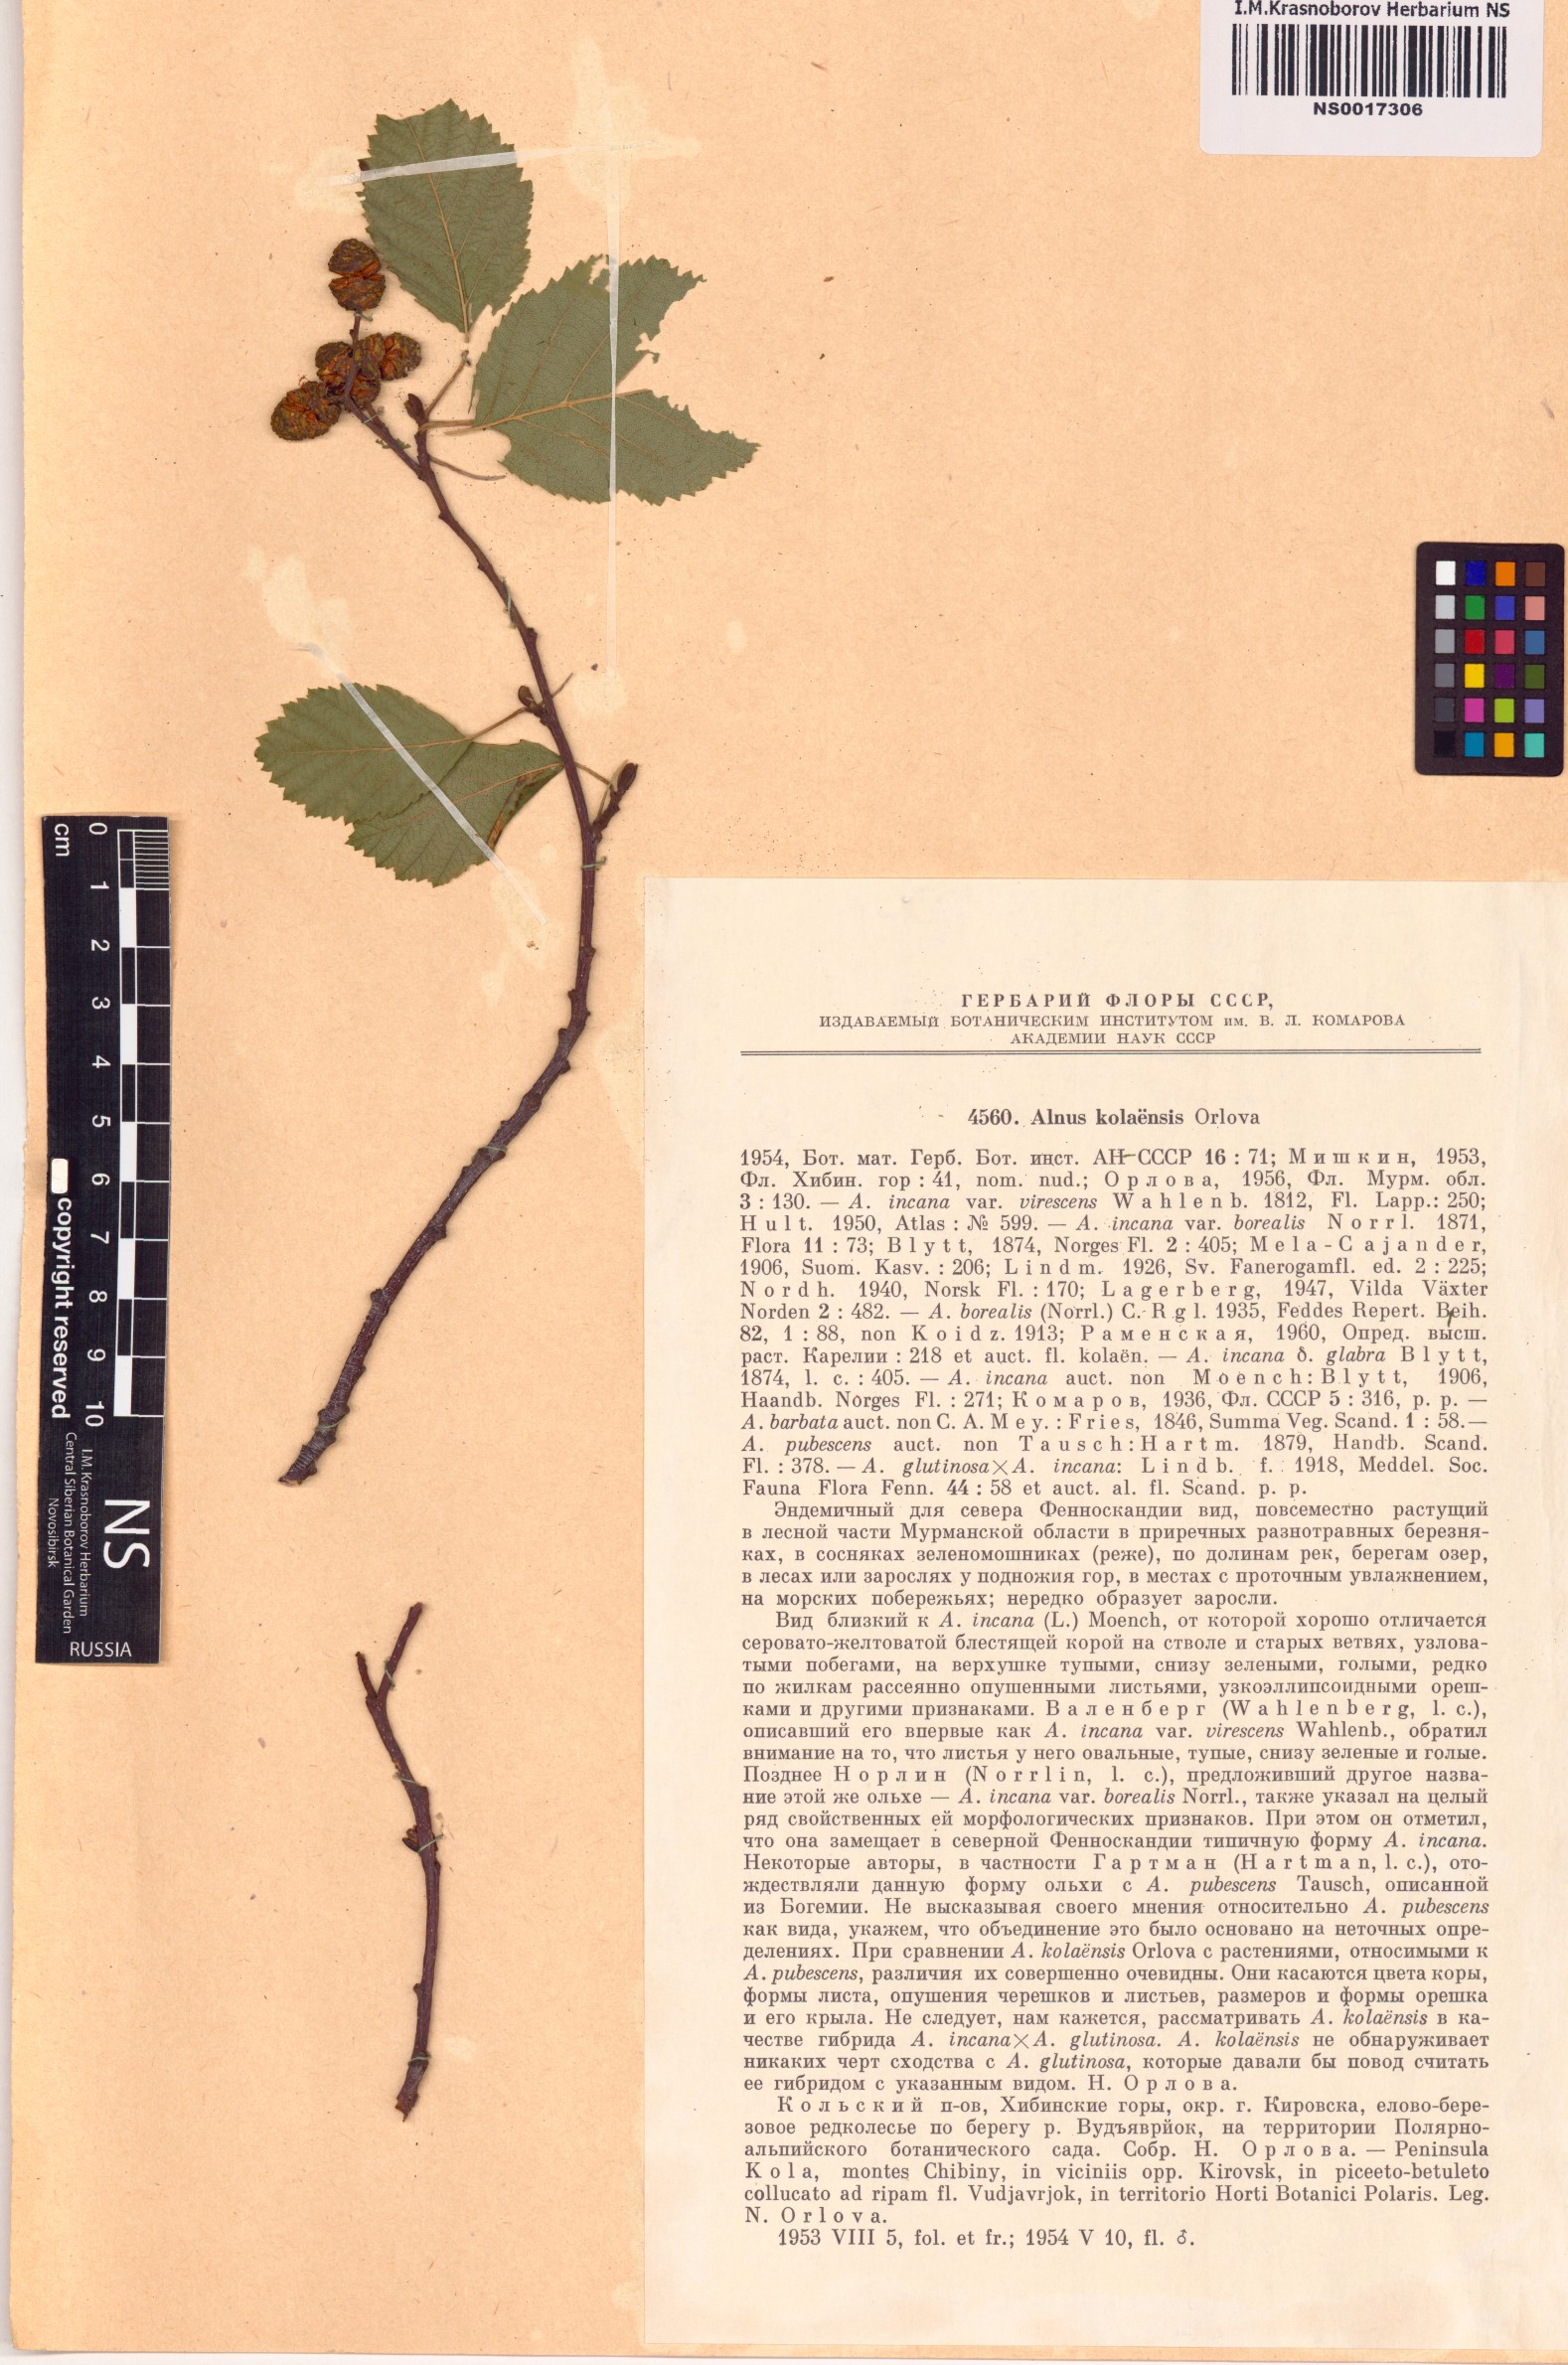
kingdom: Plantae
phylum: Tracheophyta
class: Magnoliopsida
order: Fagales
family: Betulaceae
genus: Alnus
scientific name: Alnus incana
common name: Grey alder
